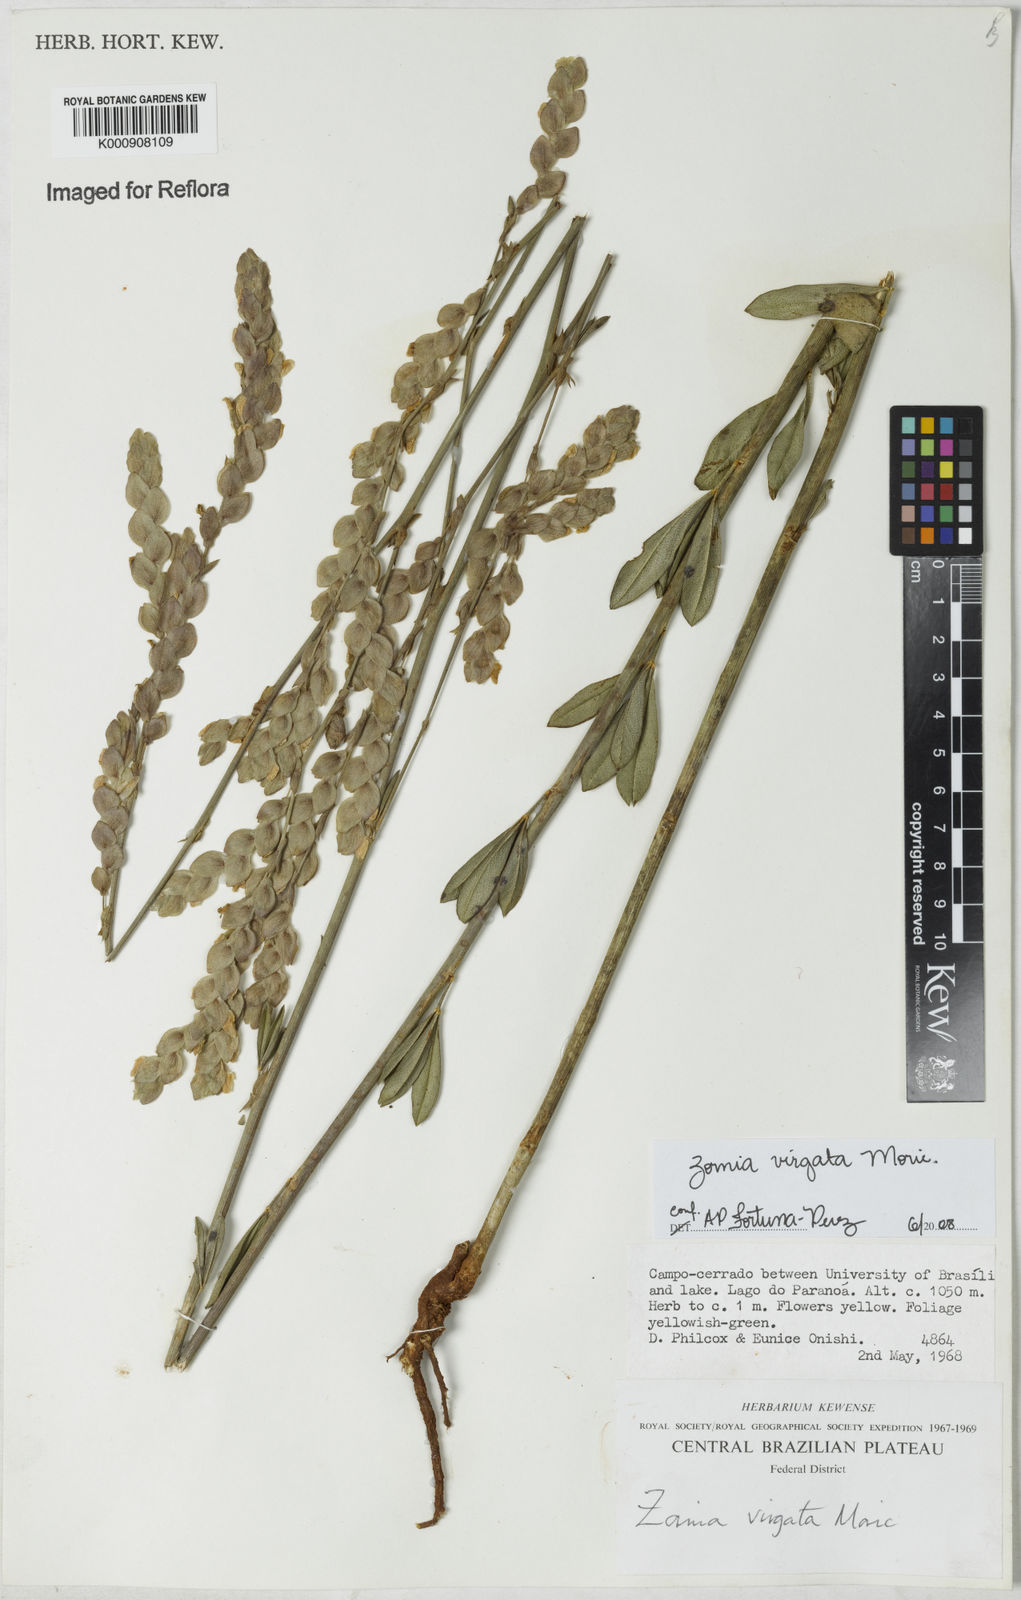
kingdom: Plantae
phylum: Tracheophyta
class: Magnoliopsida
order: Fabales
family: Fabaceae
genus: Zornia
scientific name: Zornia virgata
